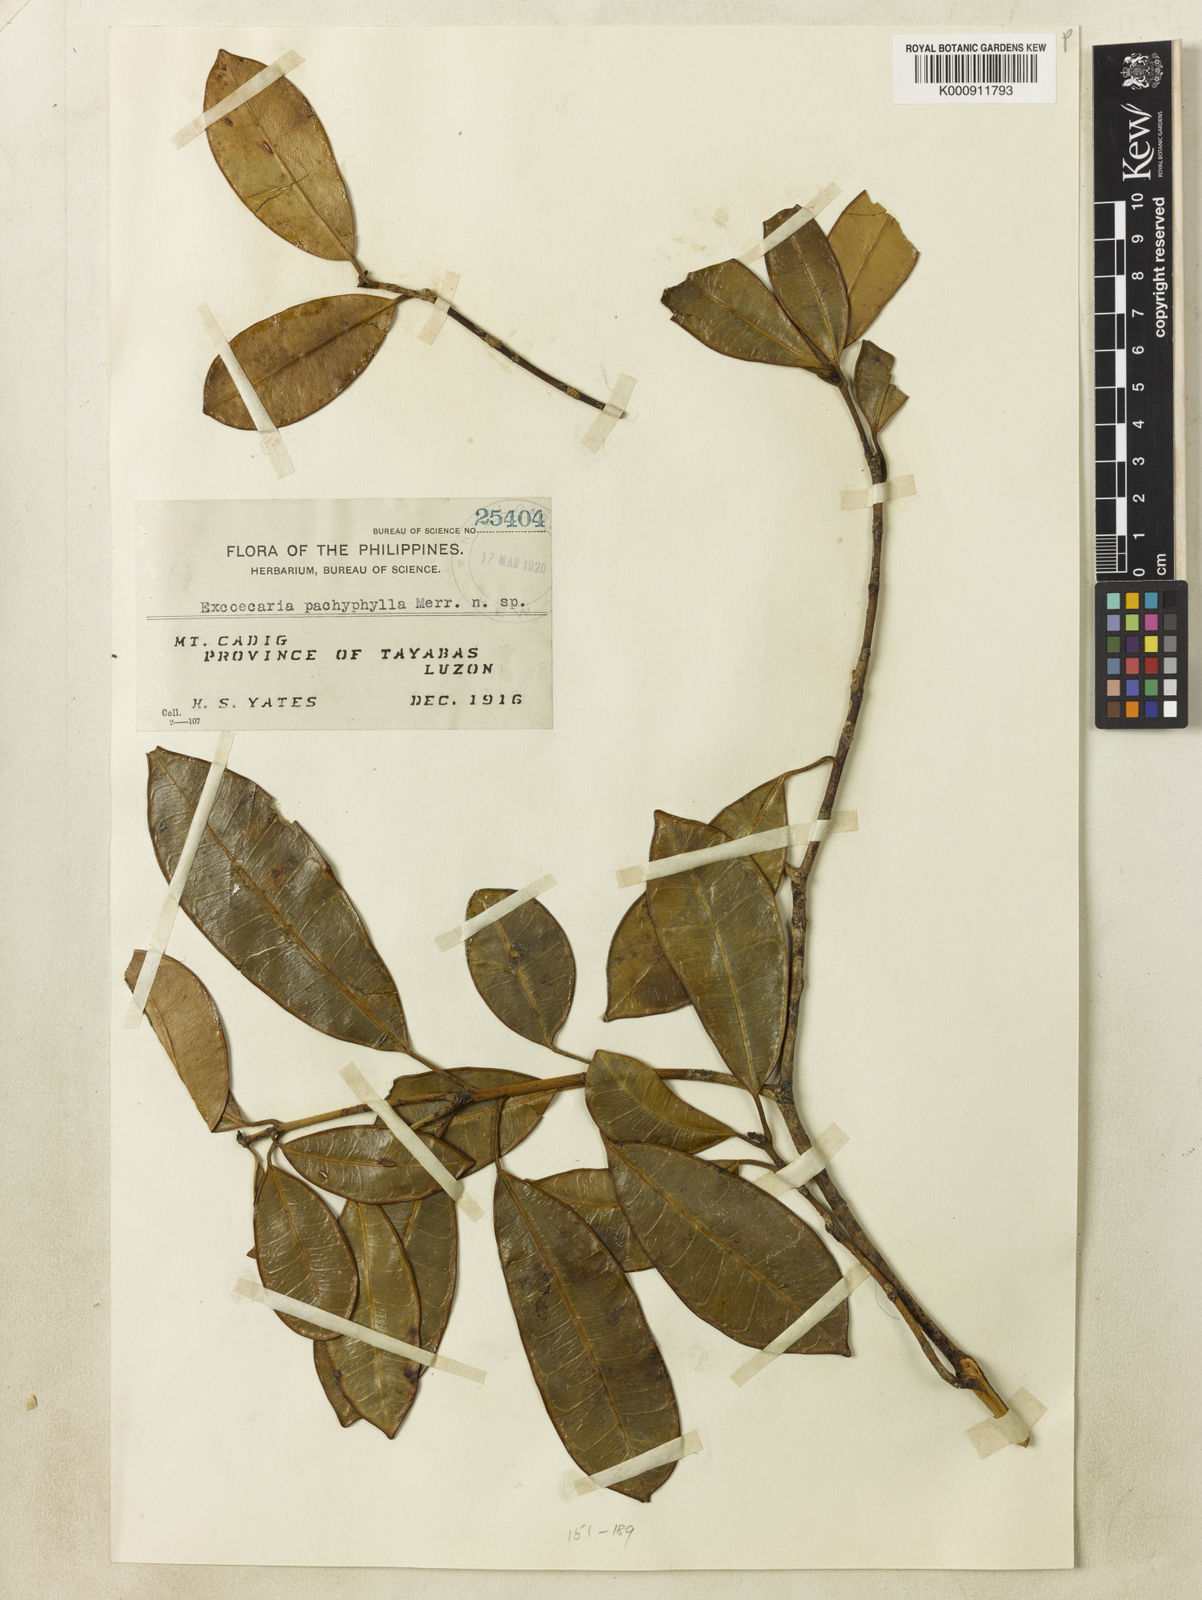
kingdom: Plantae
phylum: Tracheophyta
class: Magnoliopsida
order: Malpighiales
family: Euphorbiaceae
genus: Excoecaria
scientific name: Excoecaria pachyphylla
